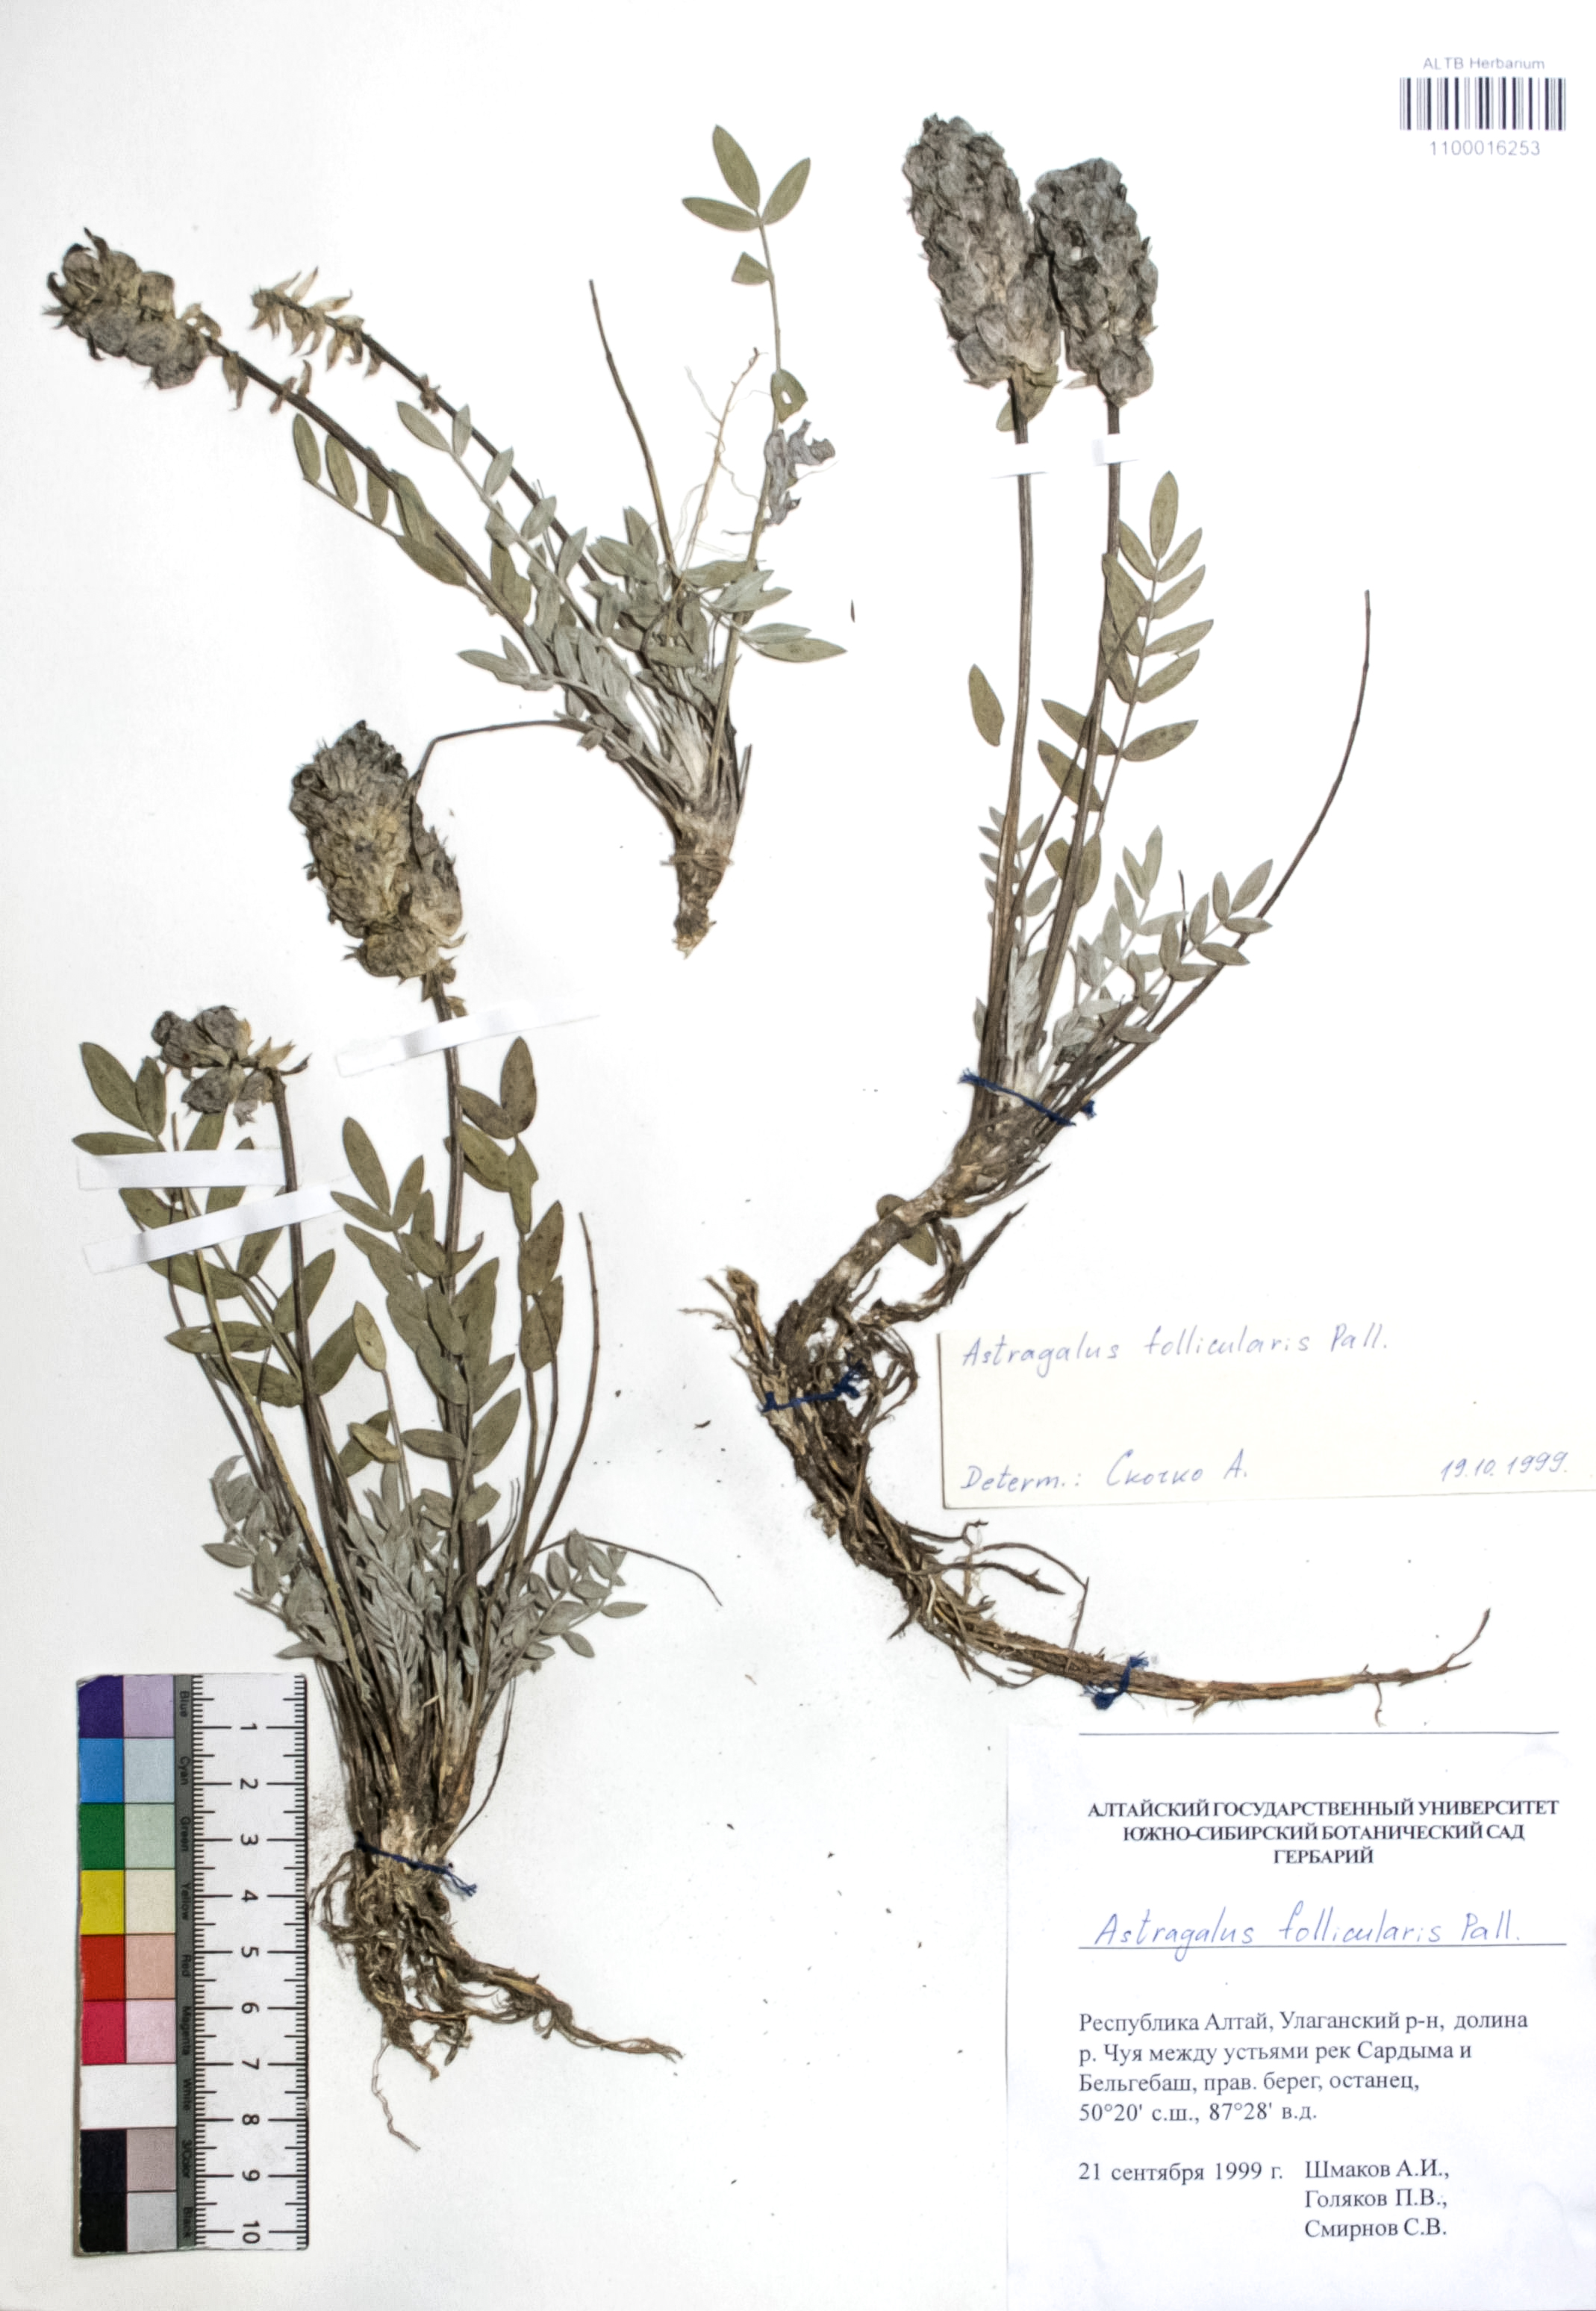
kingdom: Plantae
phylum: Tracheophyta
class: Magnoliopsida
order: Fabales
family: Fabaceae
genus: Astragalus
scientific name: Astragalus follicularis
